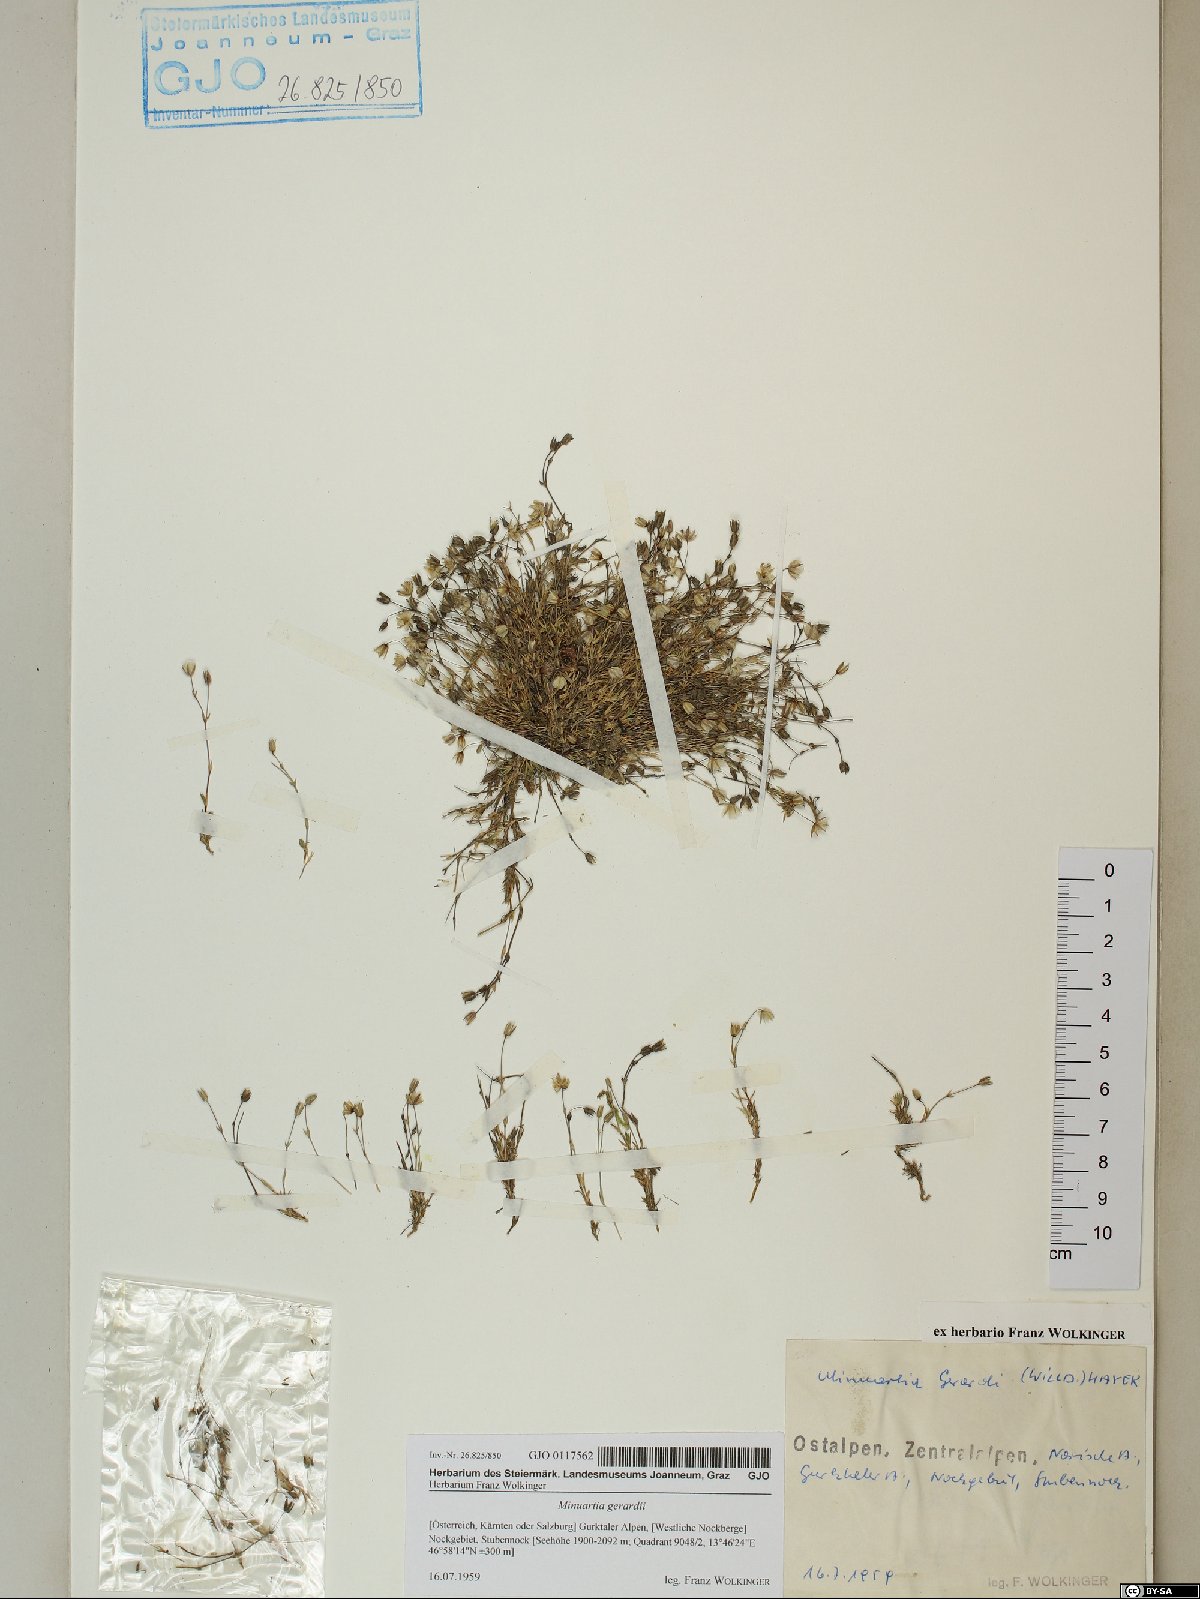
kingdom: Plantae
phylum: Tracheophyta
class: Magnoliopsida
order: Caryophyllales
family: Caryophyllaceae
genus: Sabulina
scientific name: Sabulina verna
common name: Spring sandwort
